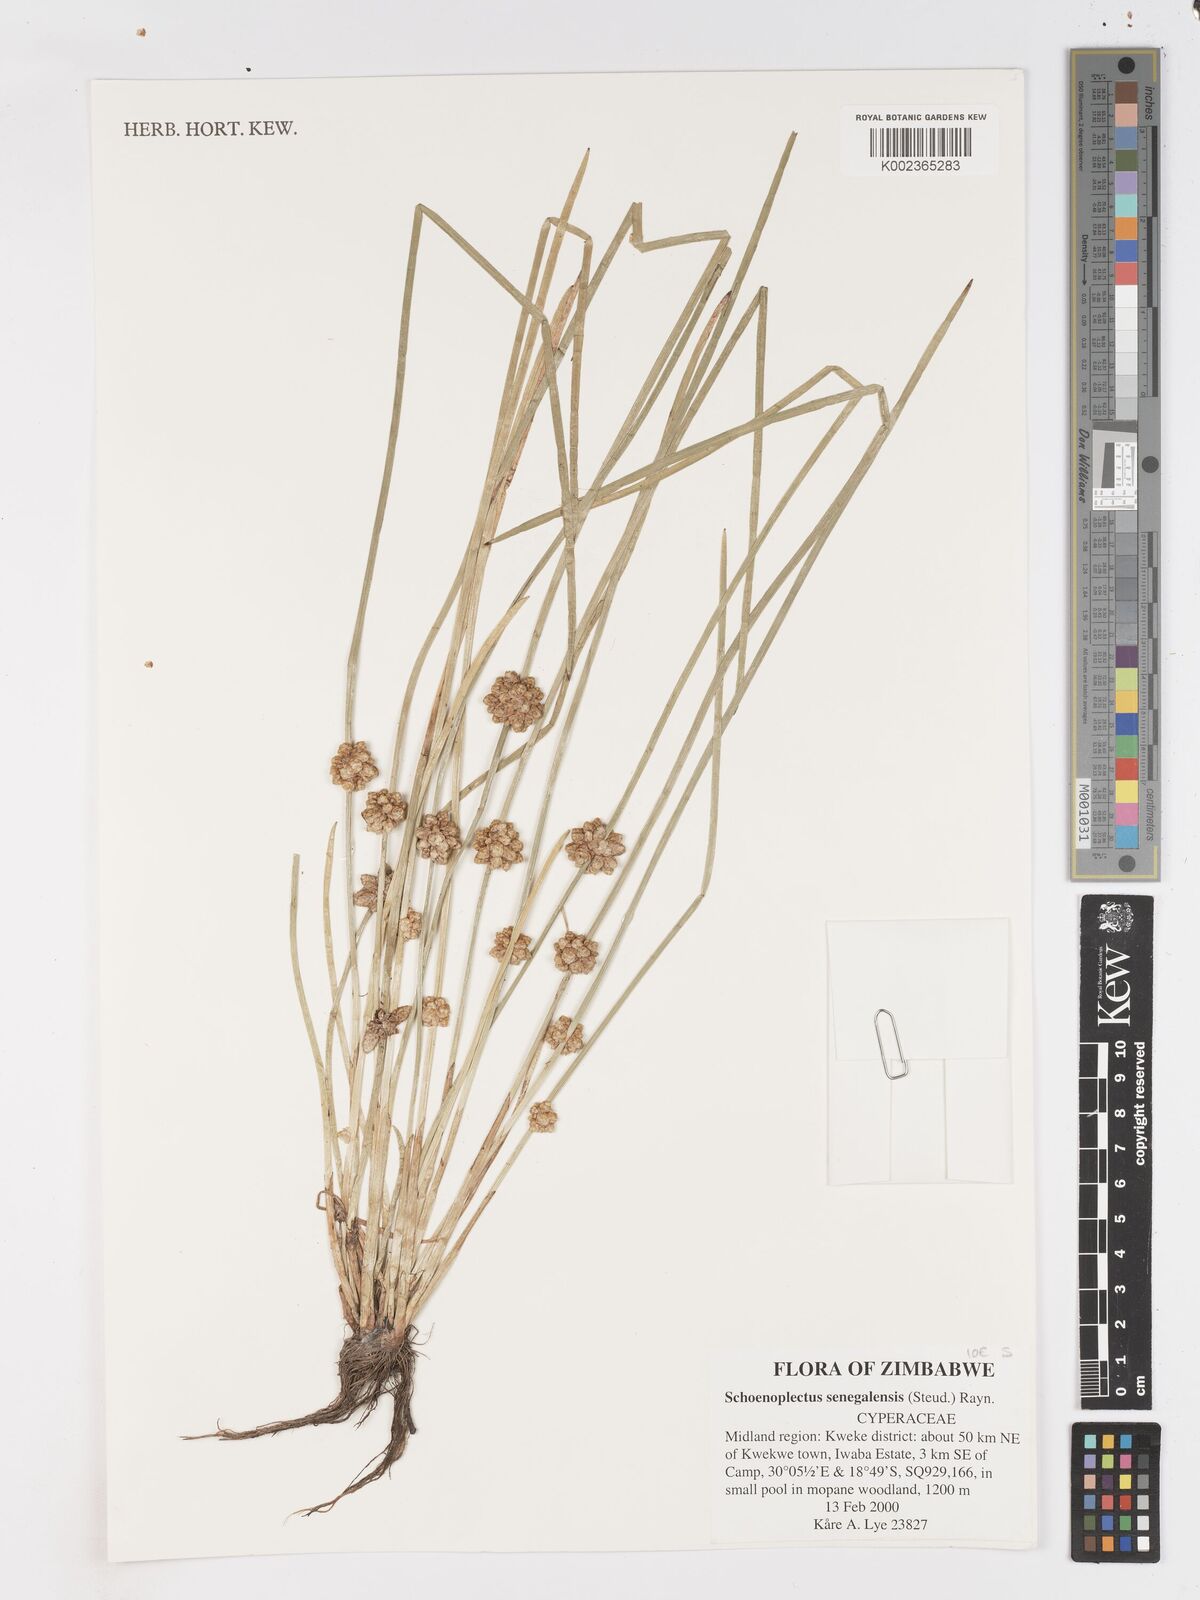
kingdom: Plantae
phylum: Tracheophyta
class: Liliopsida
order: Poales
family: Cyperaceae
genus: Schoenoplectiella
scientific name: Schoenoplectiella senegalensis
